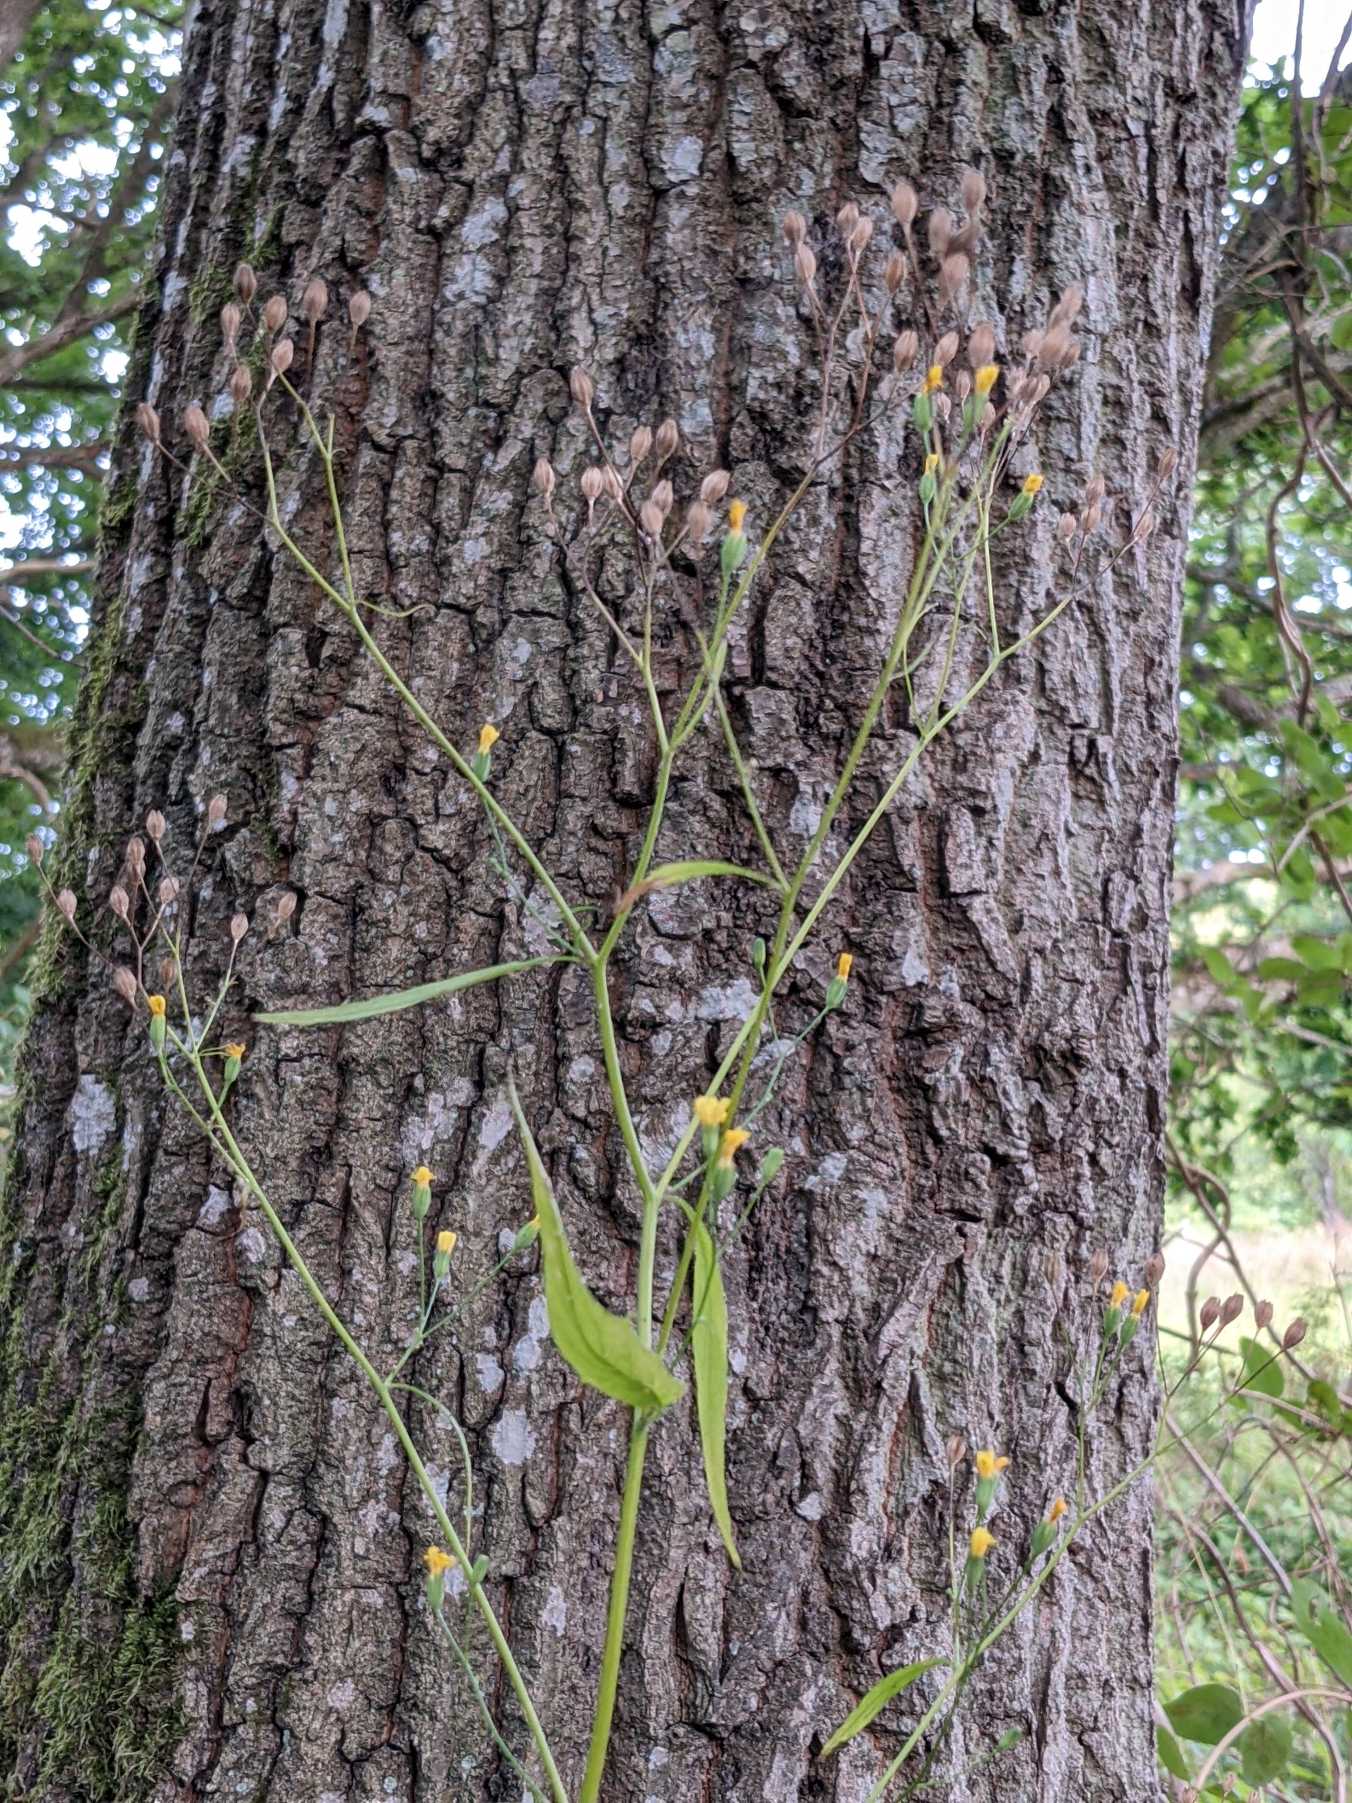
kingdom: Plantae
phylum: Tracheophyta
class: Magnoliopsida
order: Asterales
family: Asteraceae
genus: Lapsana
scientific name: Lapsana communis
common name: Haremad
